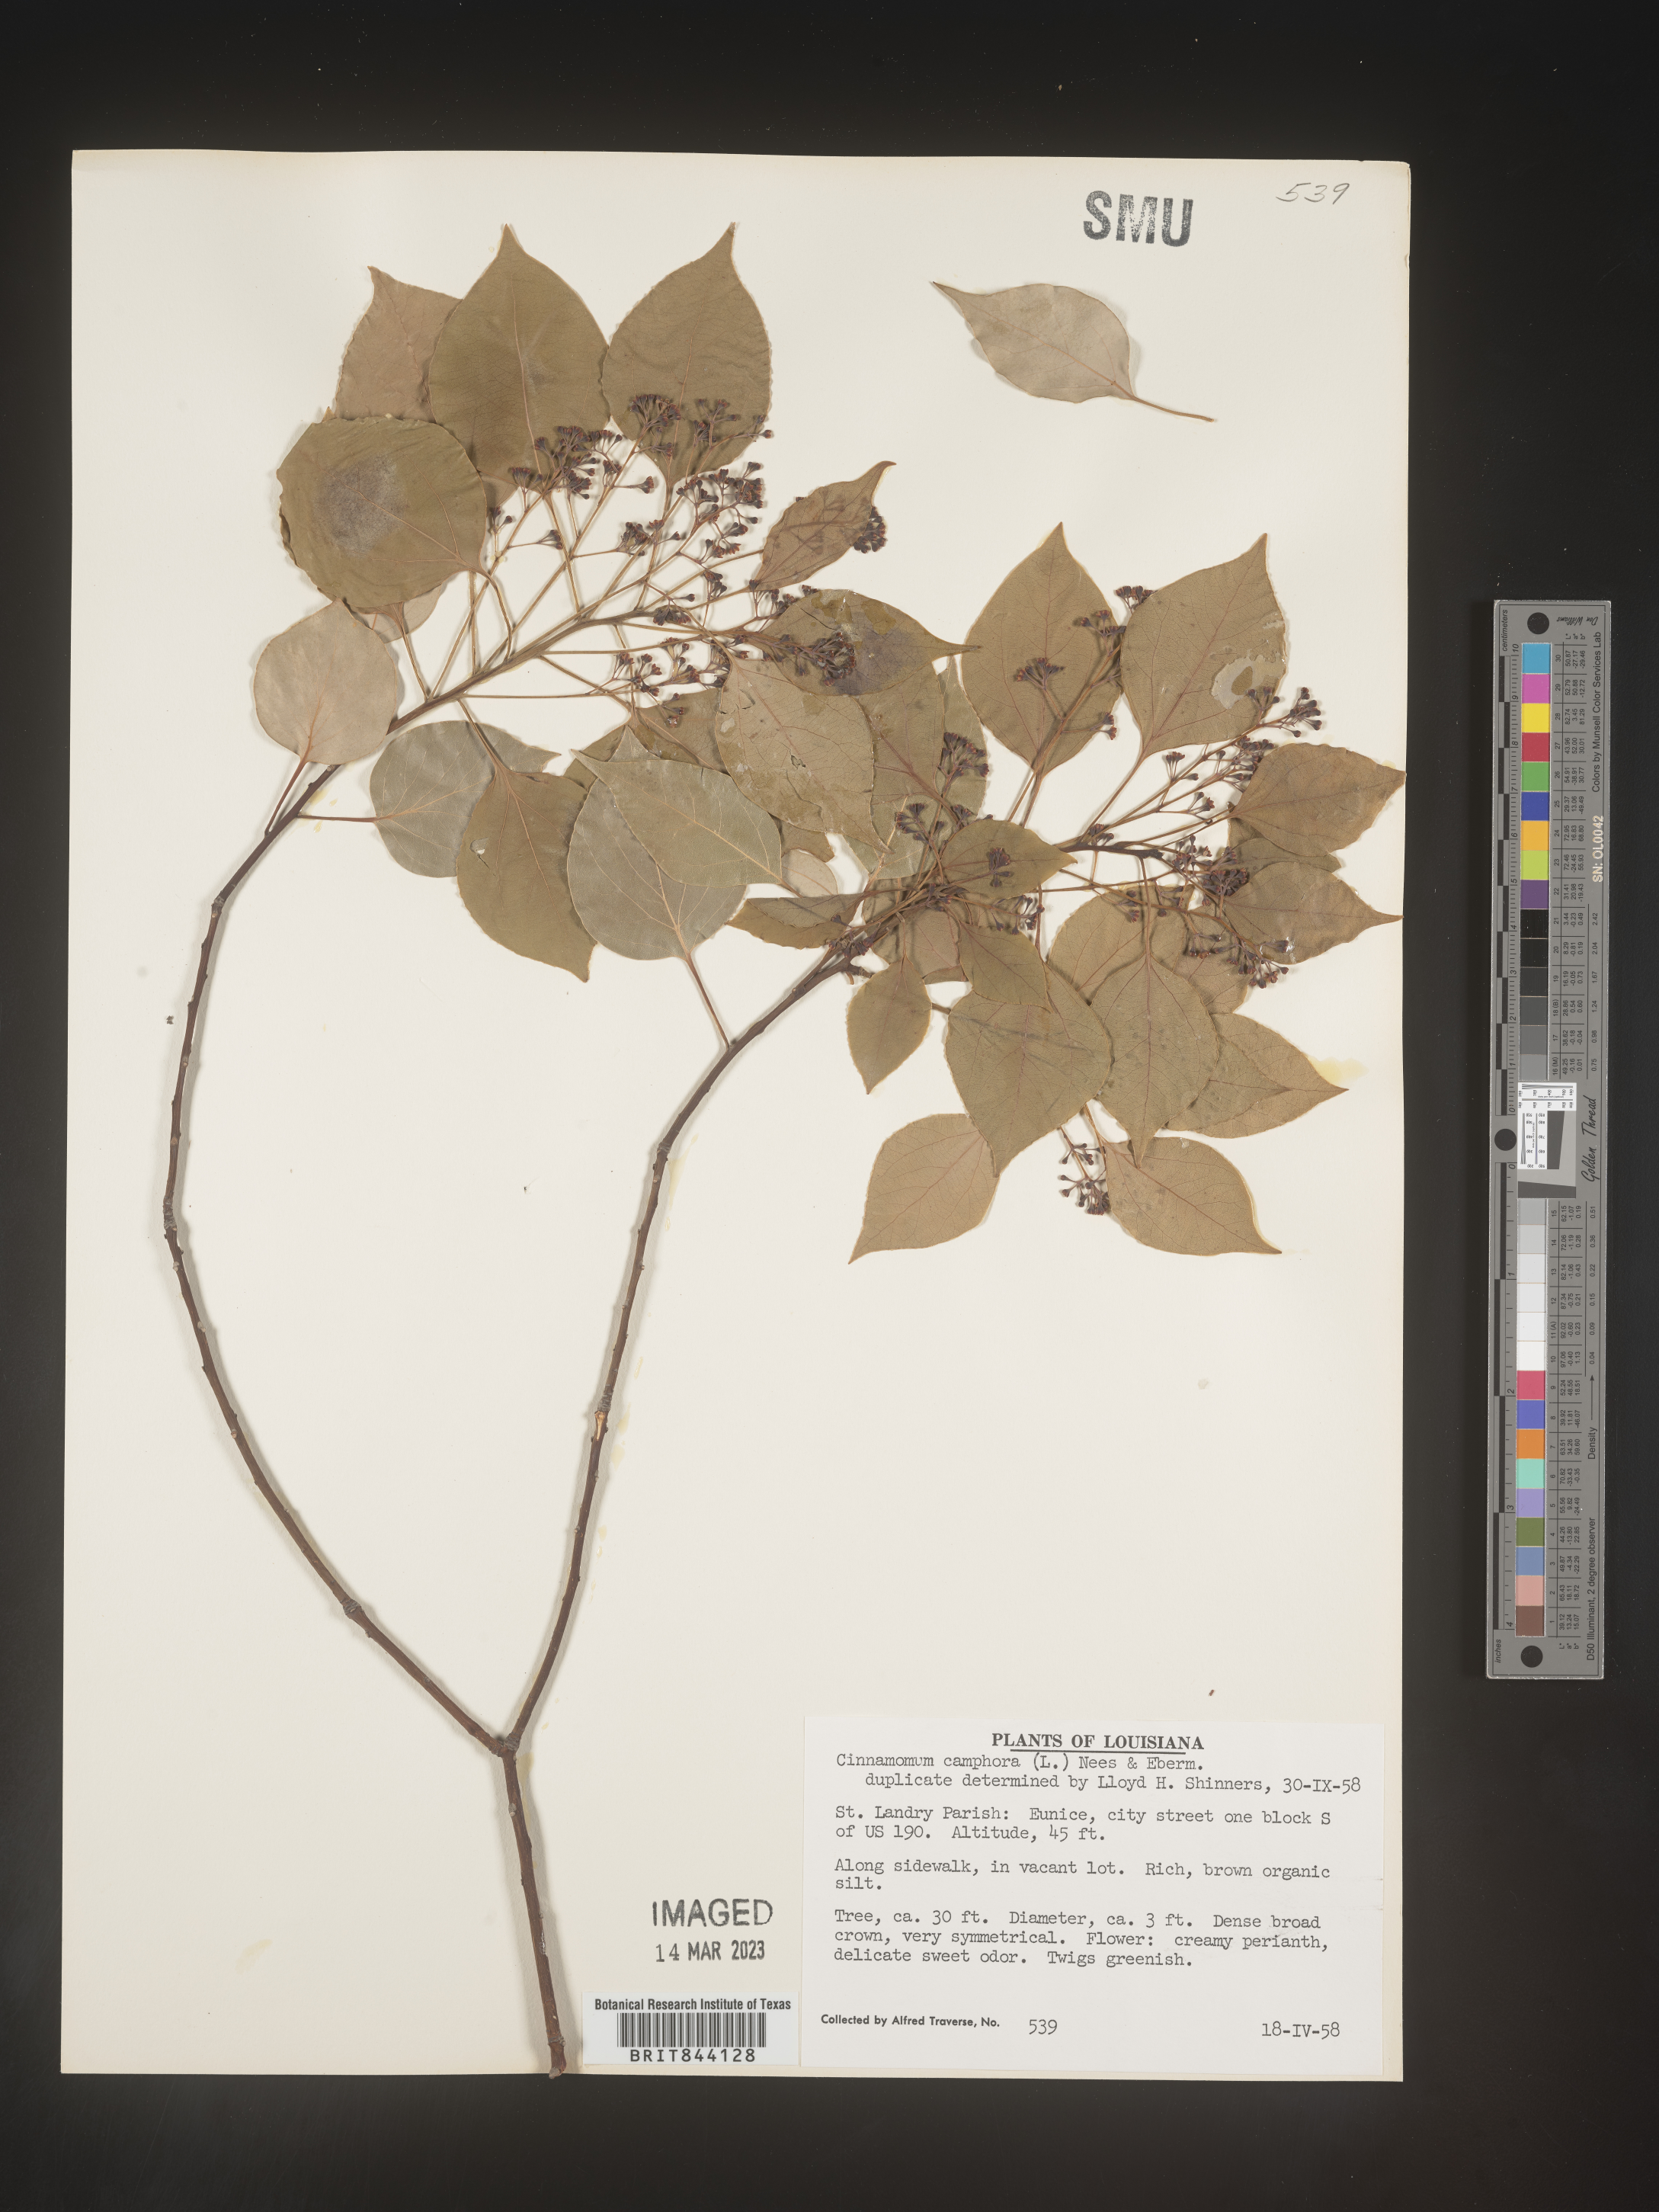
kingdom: Plantae
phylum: Tracheophyta
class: Magnoliopsida
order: Laurales
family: Lauraceae
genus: Cinnamomum
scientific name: Cinnamomum
